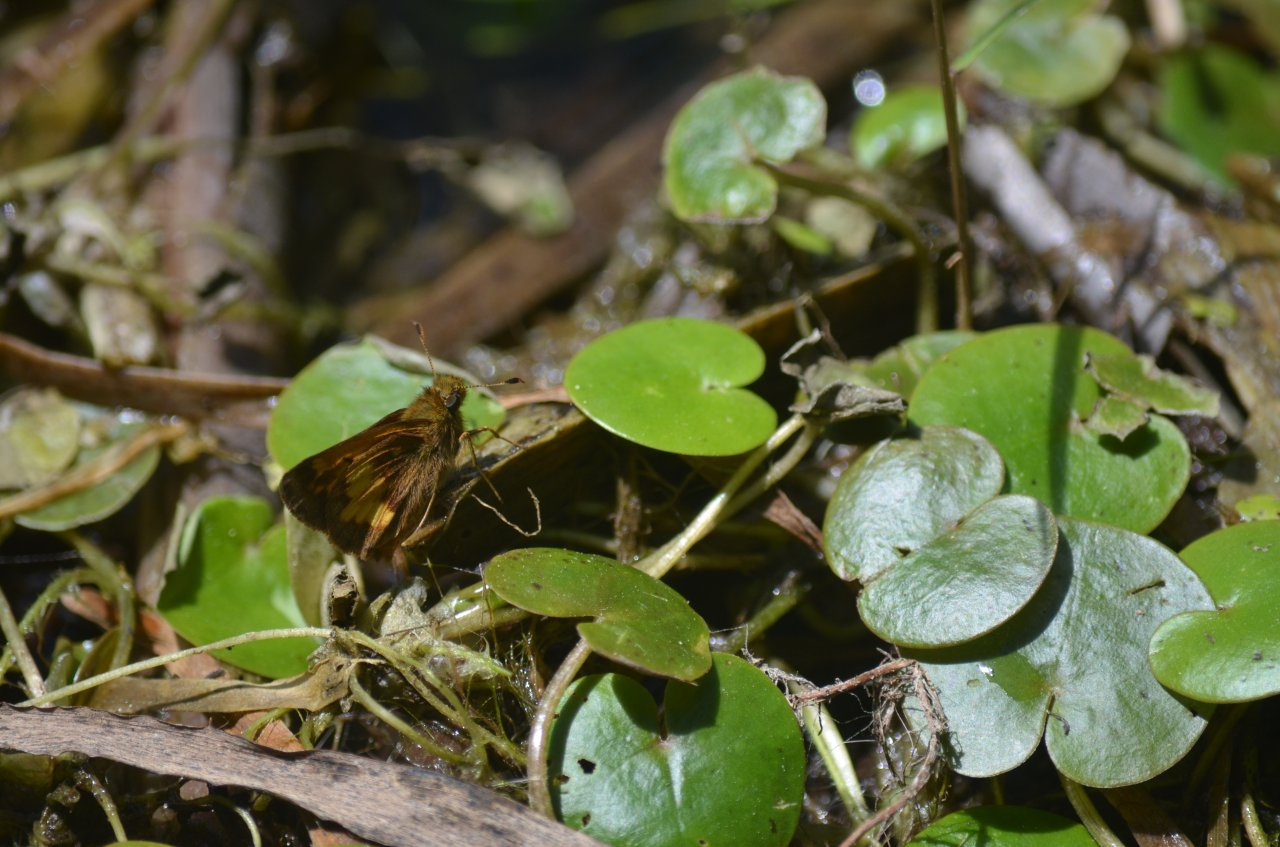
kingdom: Animalia
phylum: Arthropoda
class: Insecta
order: Lepidoptera
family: Hesperiidae
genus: Lon
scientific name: Lon hobomok
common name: Hobomok Skipper
